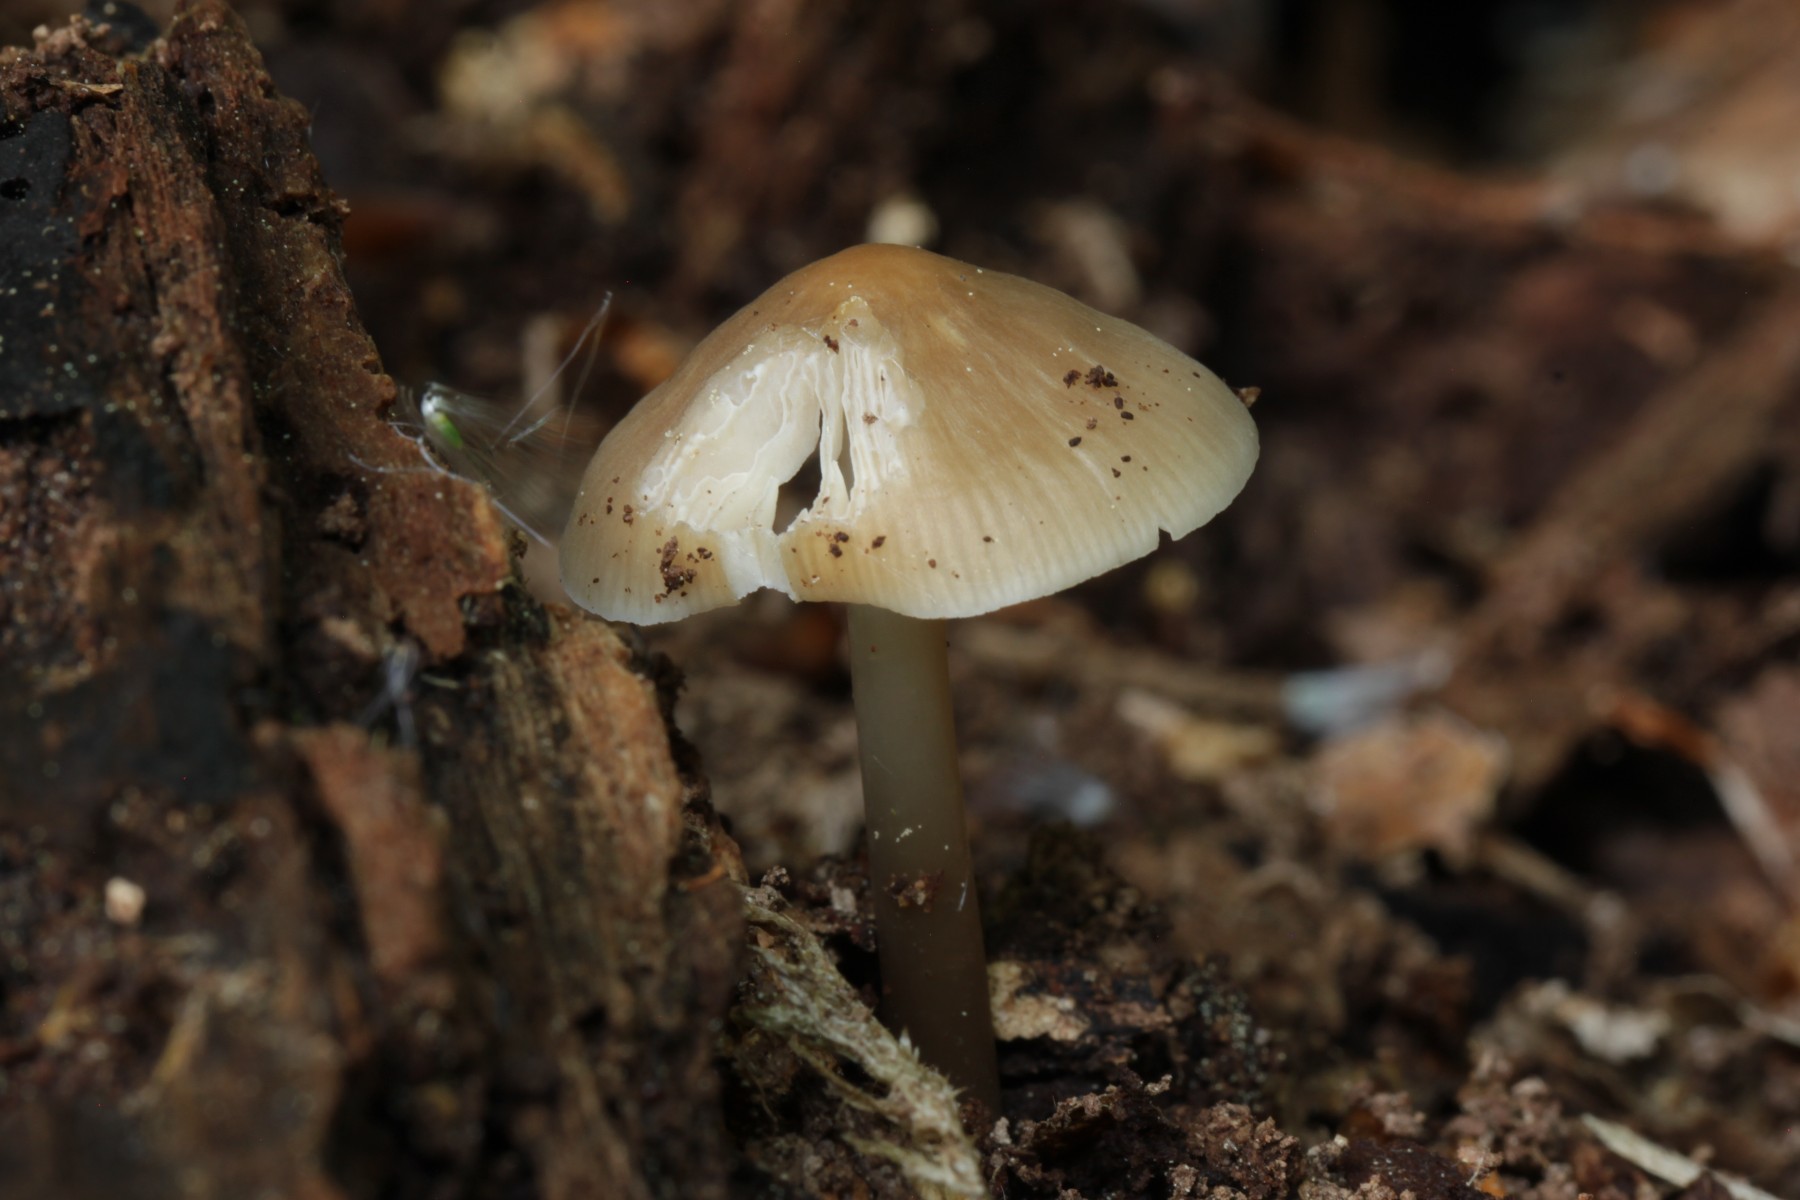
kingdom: Fungi
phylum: Basidiomycota
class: Agaricomycetes
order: Agaricales
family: Mycenaceae
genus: Mycena
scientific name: Mycena galericulata
